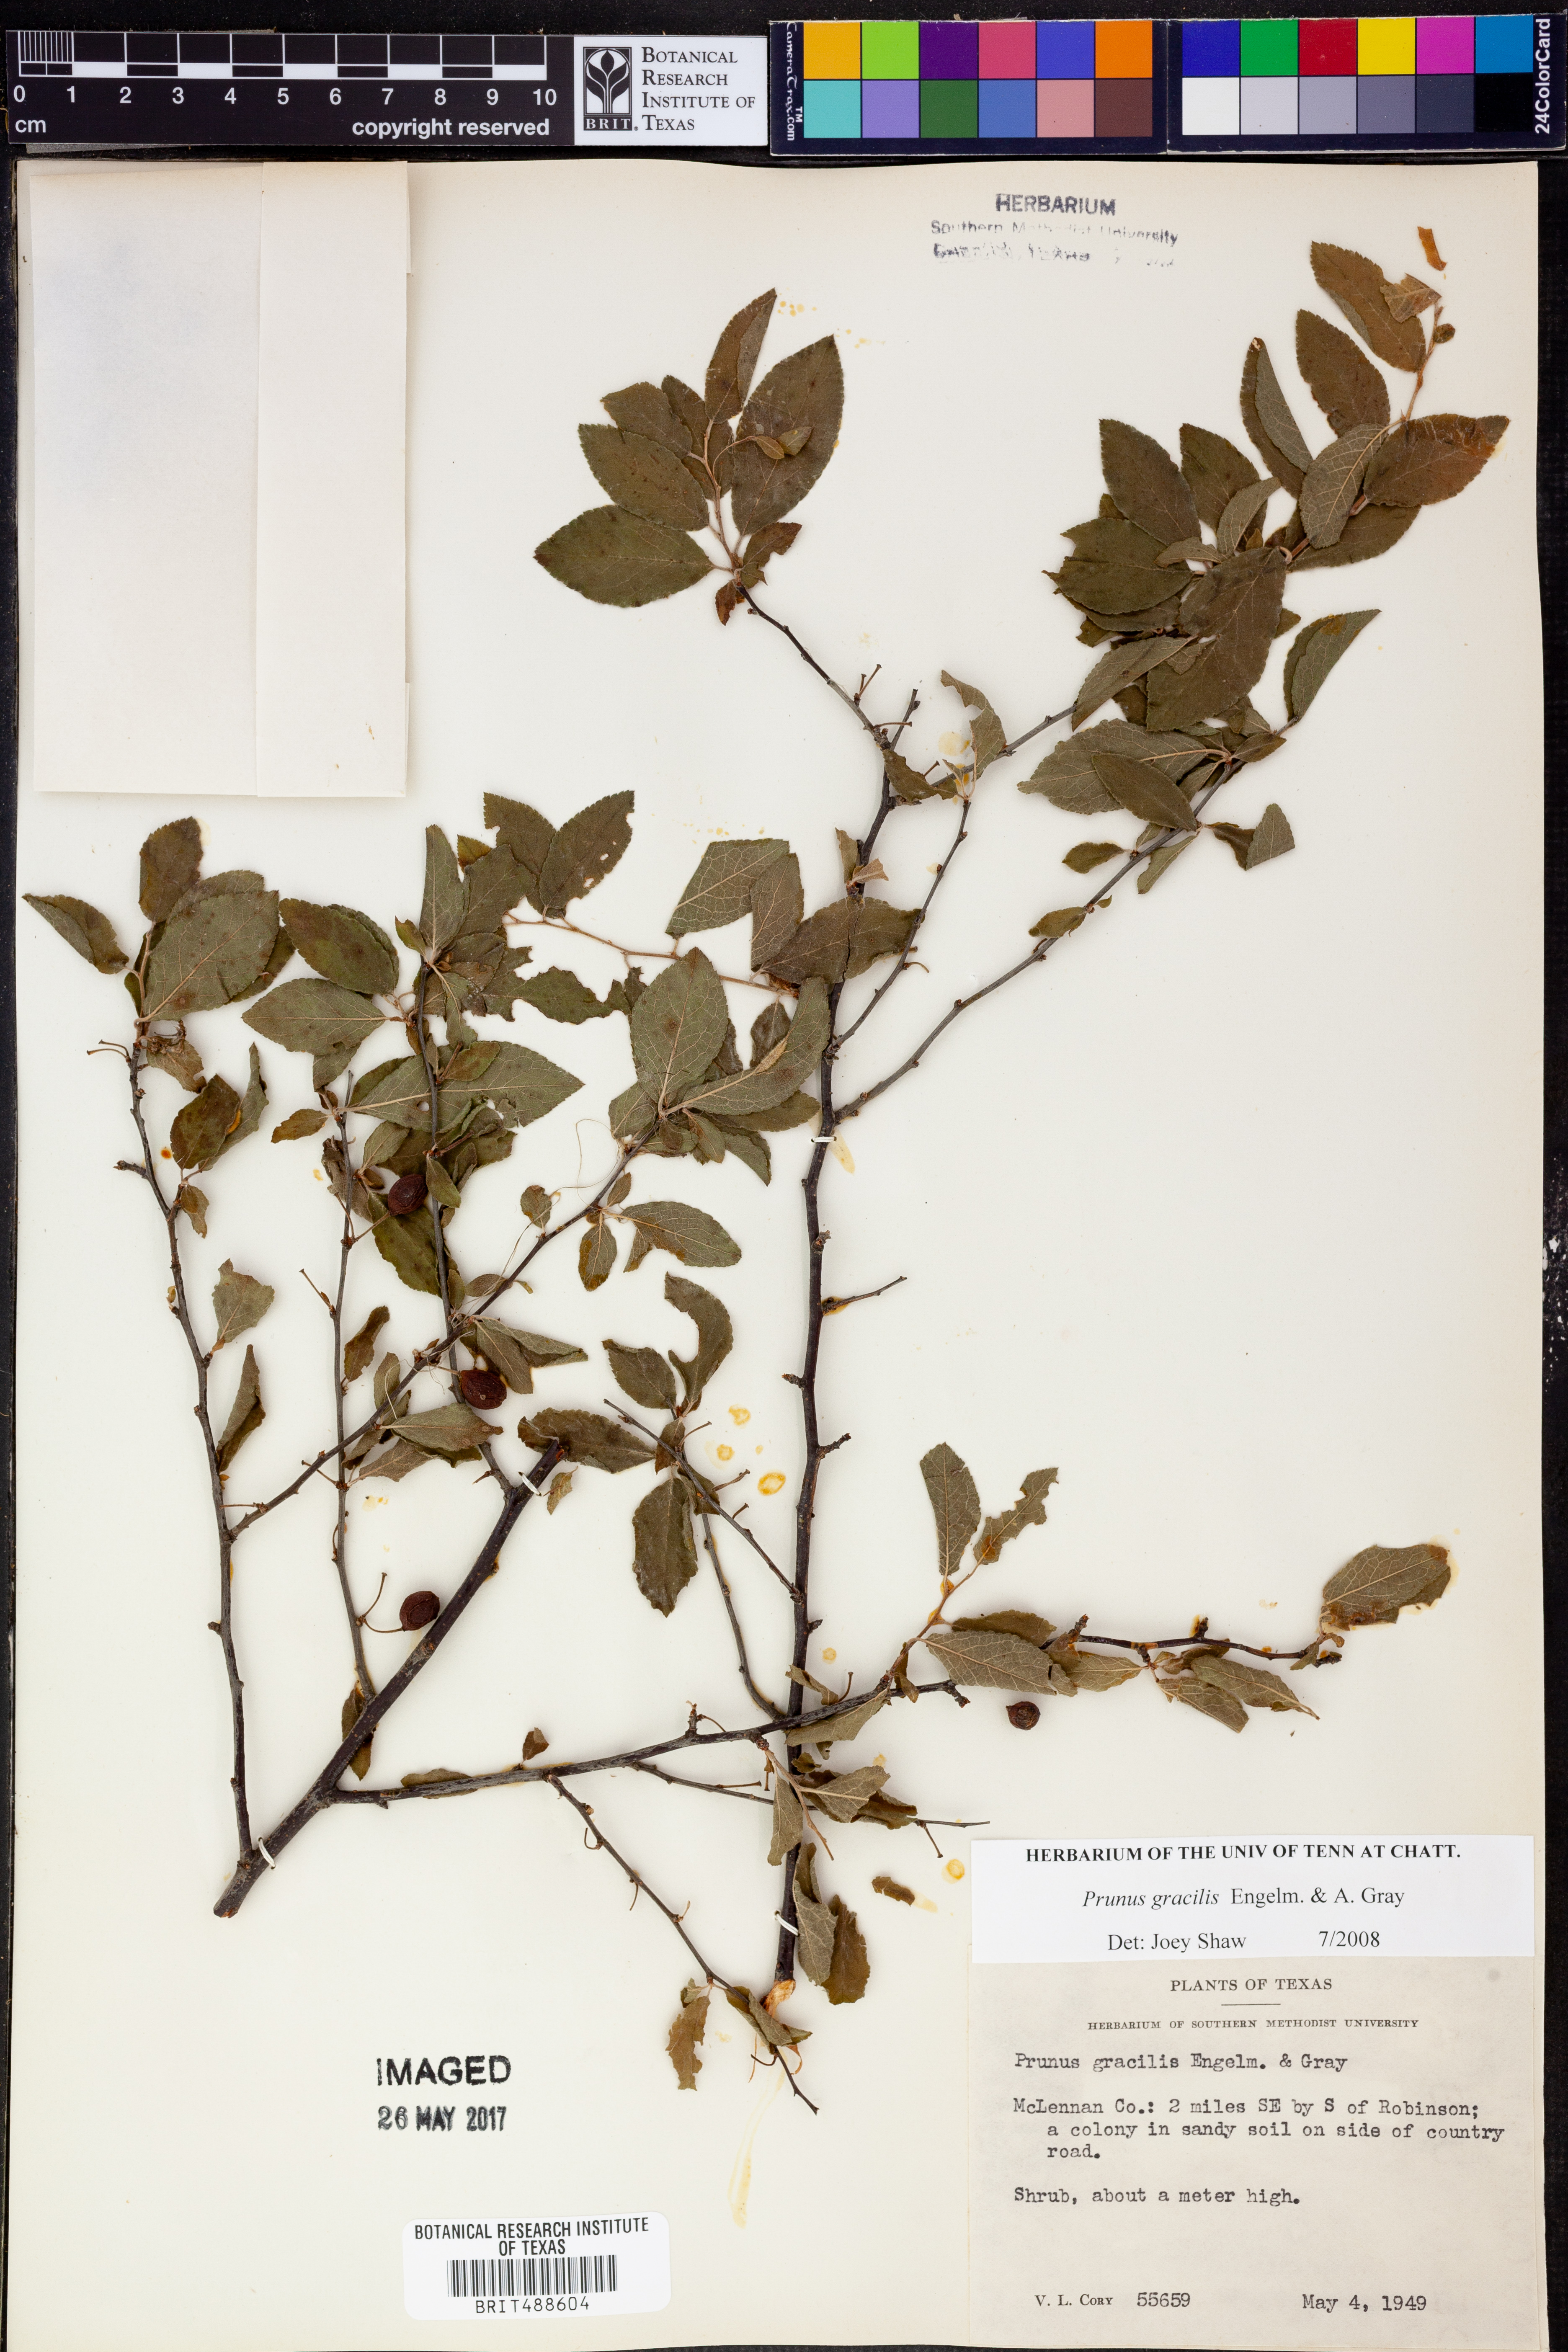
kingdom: Plantae
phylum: Tracheophyta
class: Magnoliopsida
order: Rosales
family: Rosaceae
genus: Prunus
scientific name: Prunus gracilis
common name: Oklahoma plum
